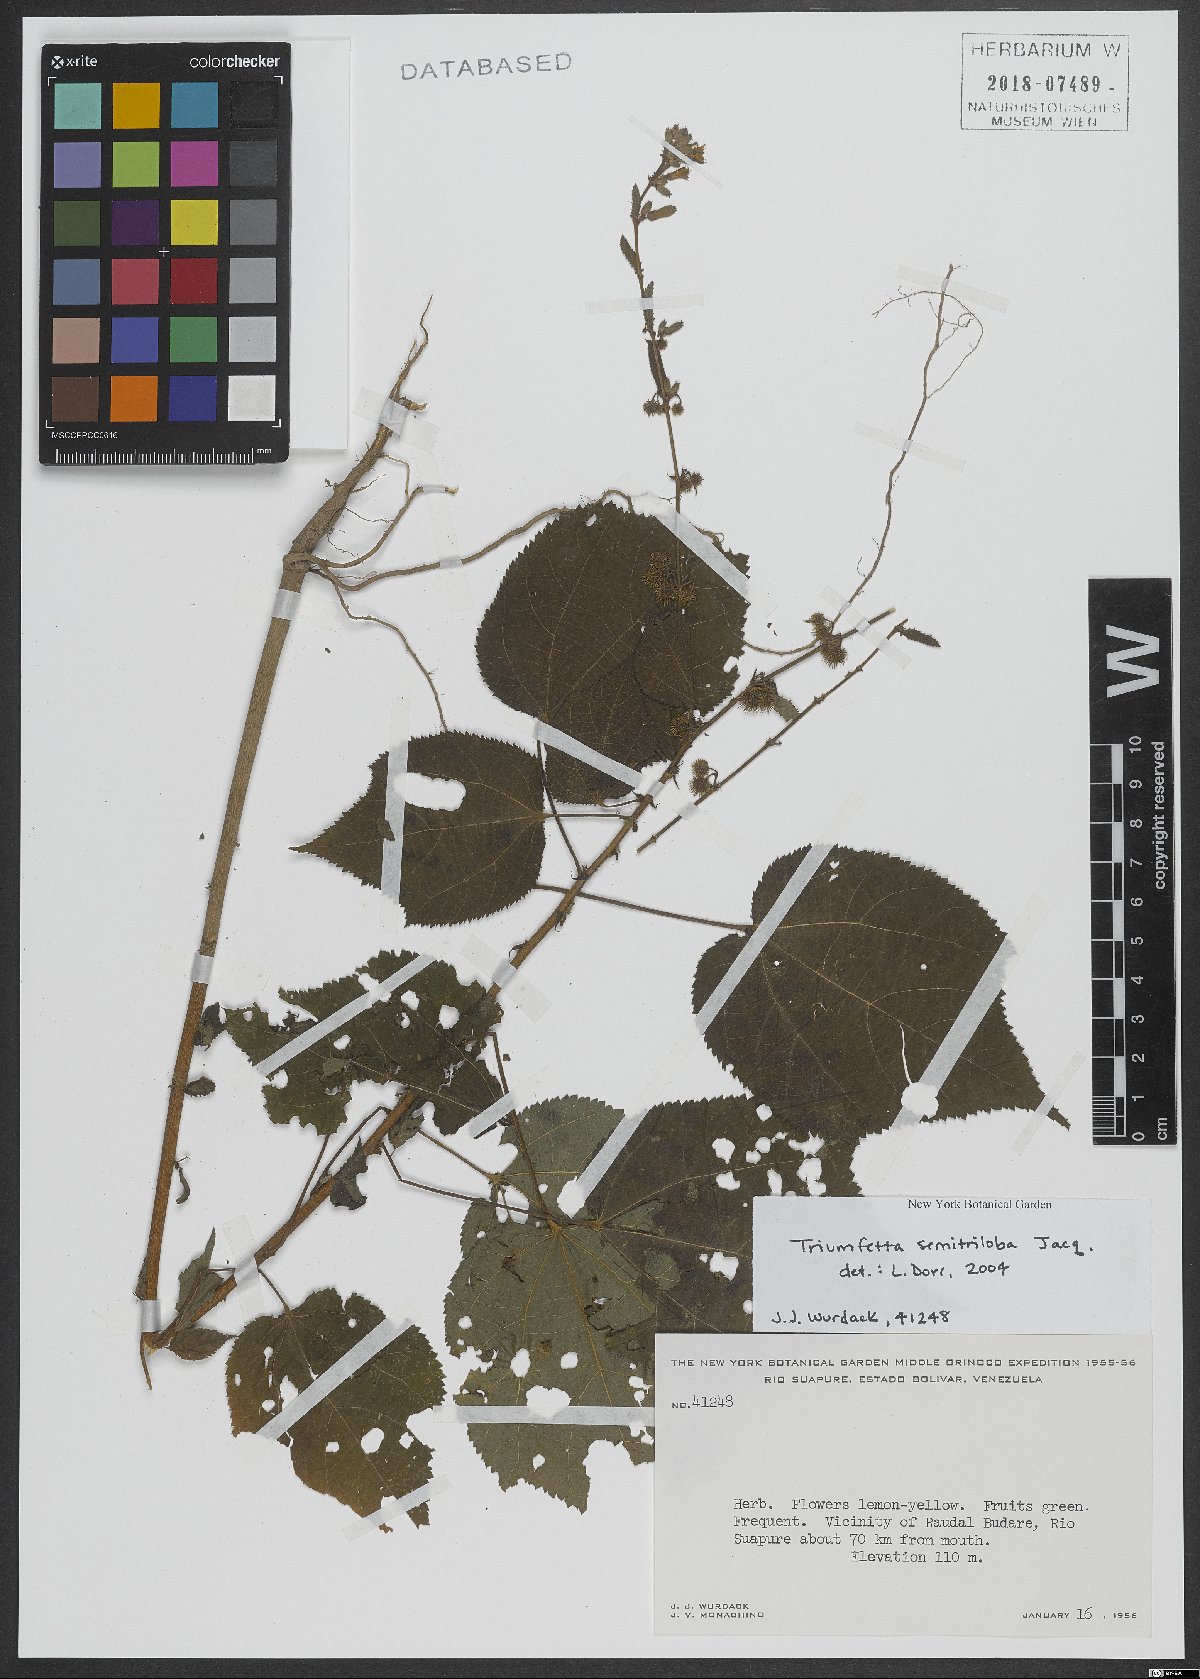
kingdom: Plantae
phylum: Tracheophyta
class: Magnoliopsida
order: Malvales
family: Malvaceae
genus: Triumfetta
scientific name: Triumfetta semitriloba
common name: Sacramento burbark
